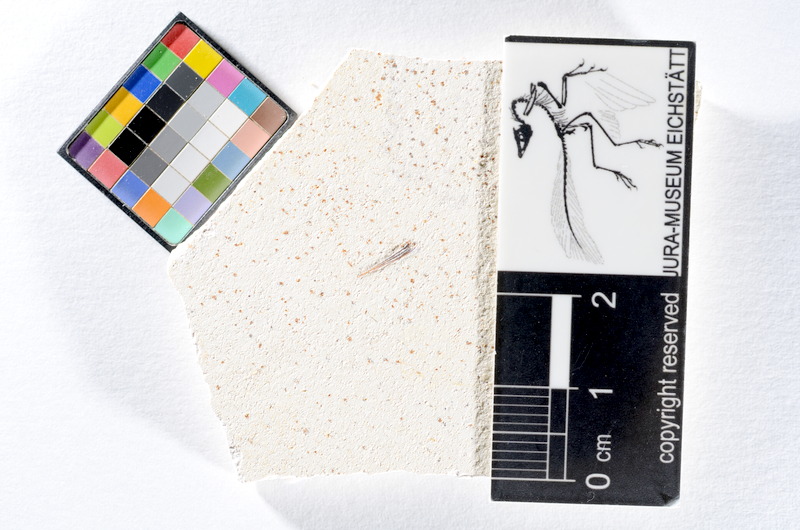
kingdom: Animalia
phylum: Chordata
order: Salmoniformes
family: Orthogonikleithridae
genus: Orthogonikleithrus
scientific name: Orthogonikleithrus hoelli
